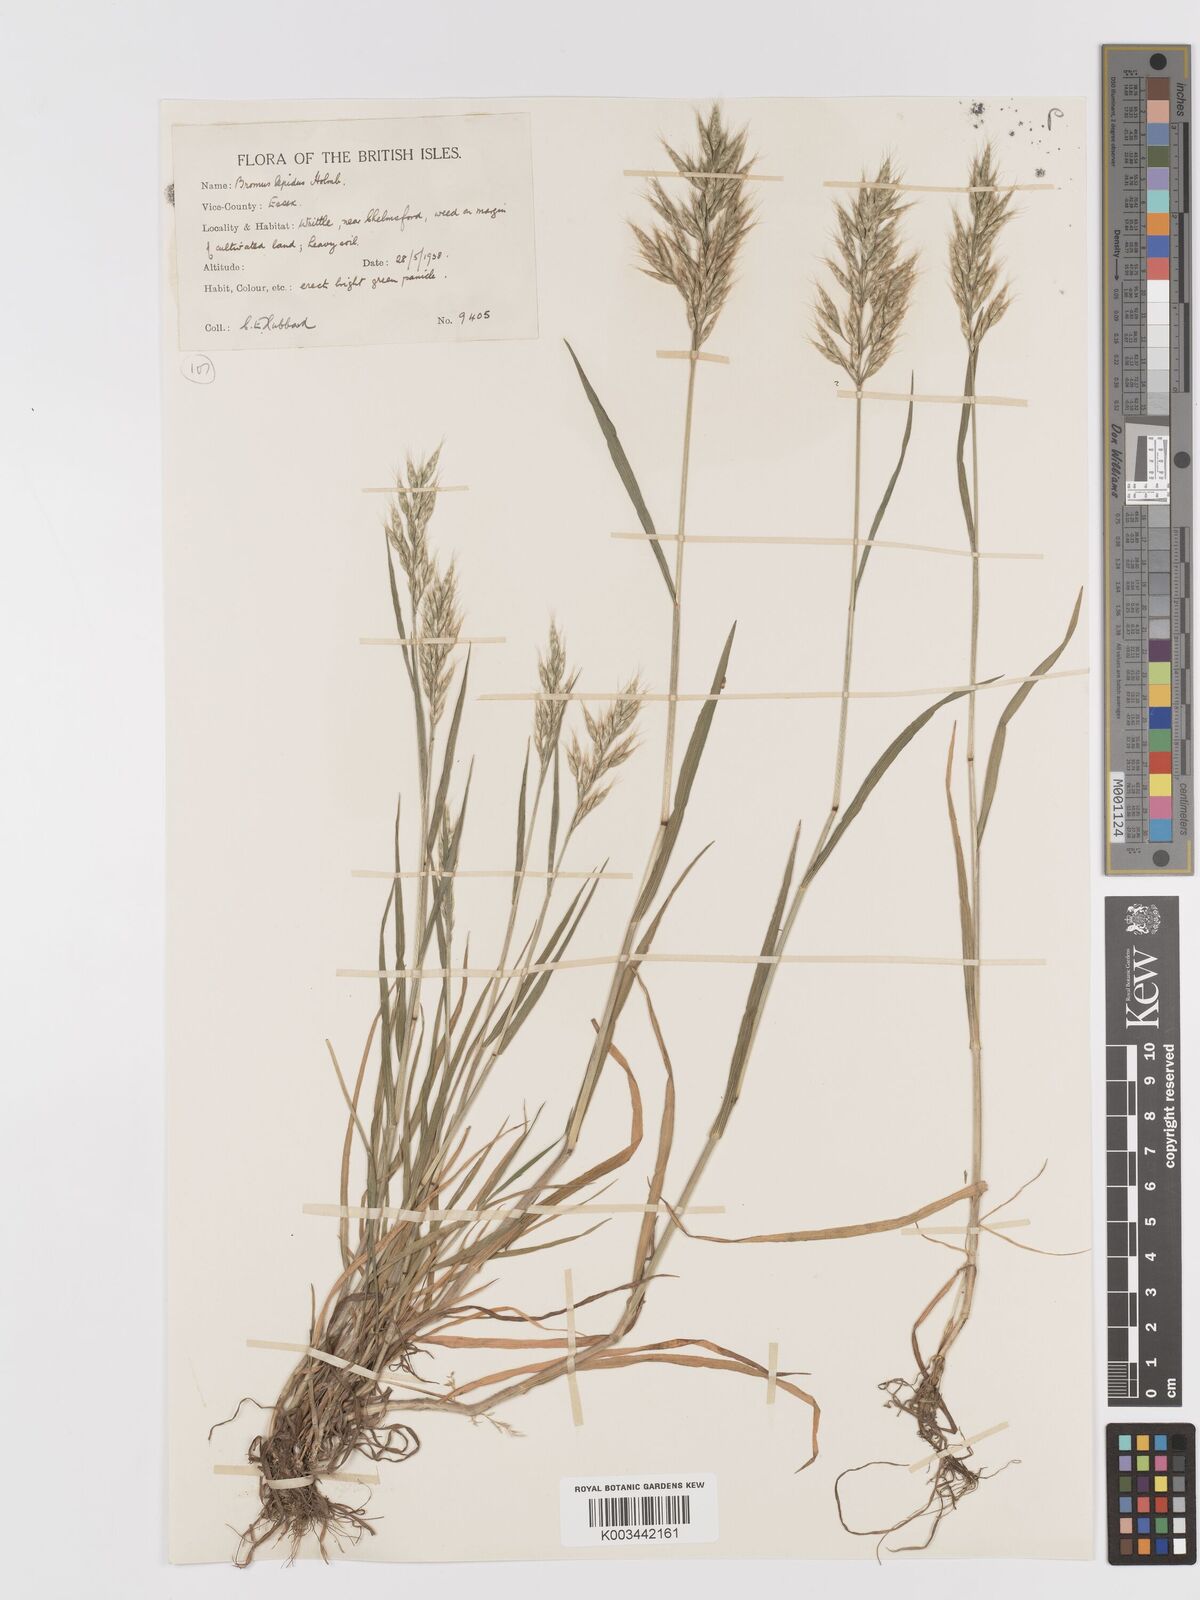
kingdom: Plantae
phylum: Tracheophyta
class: Liliopsida
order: Poales
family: Poaceae
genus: Bromus
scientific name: Bromus lepidus
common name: Slender soft-brome
